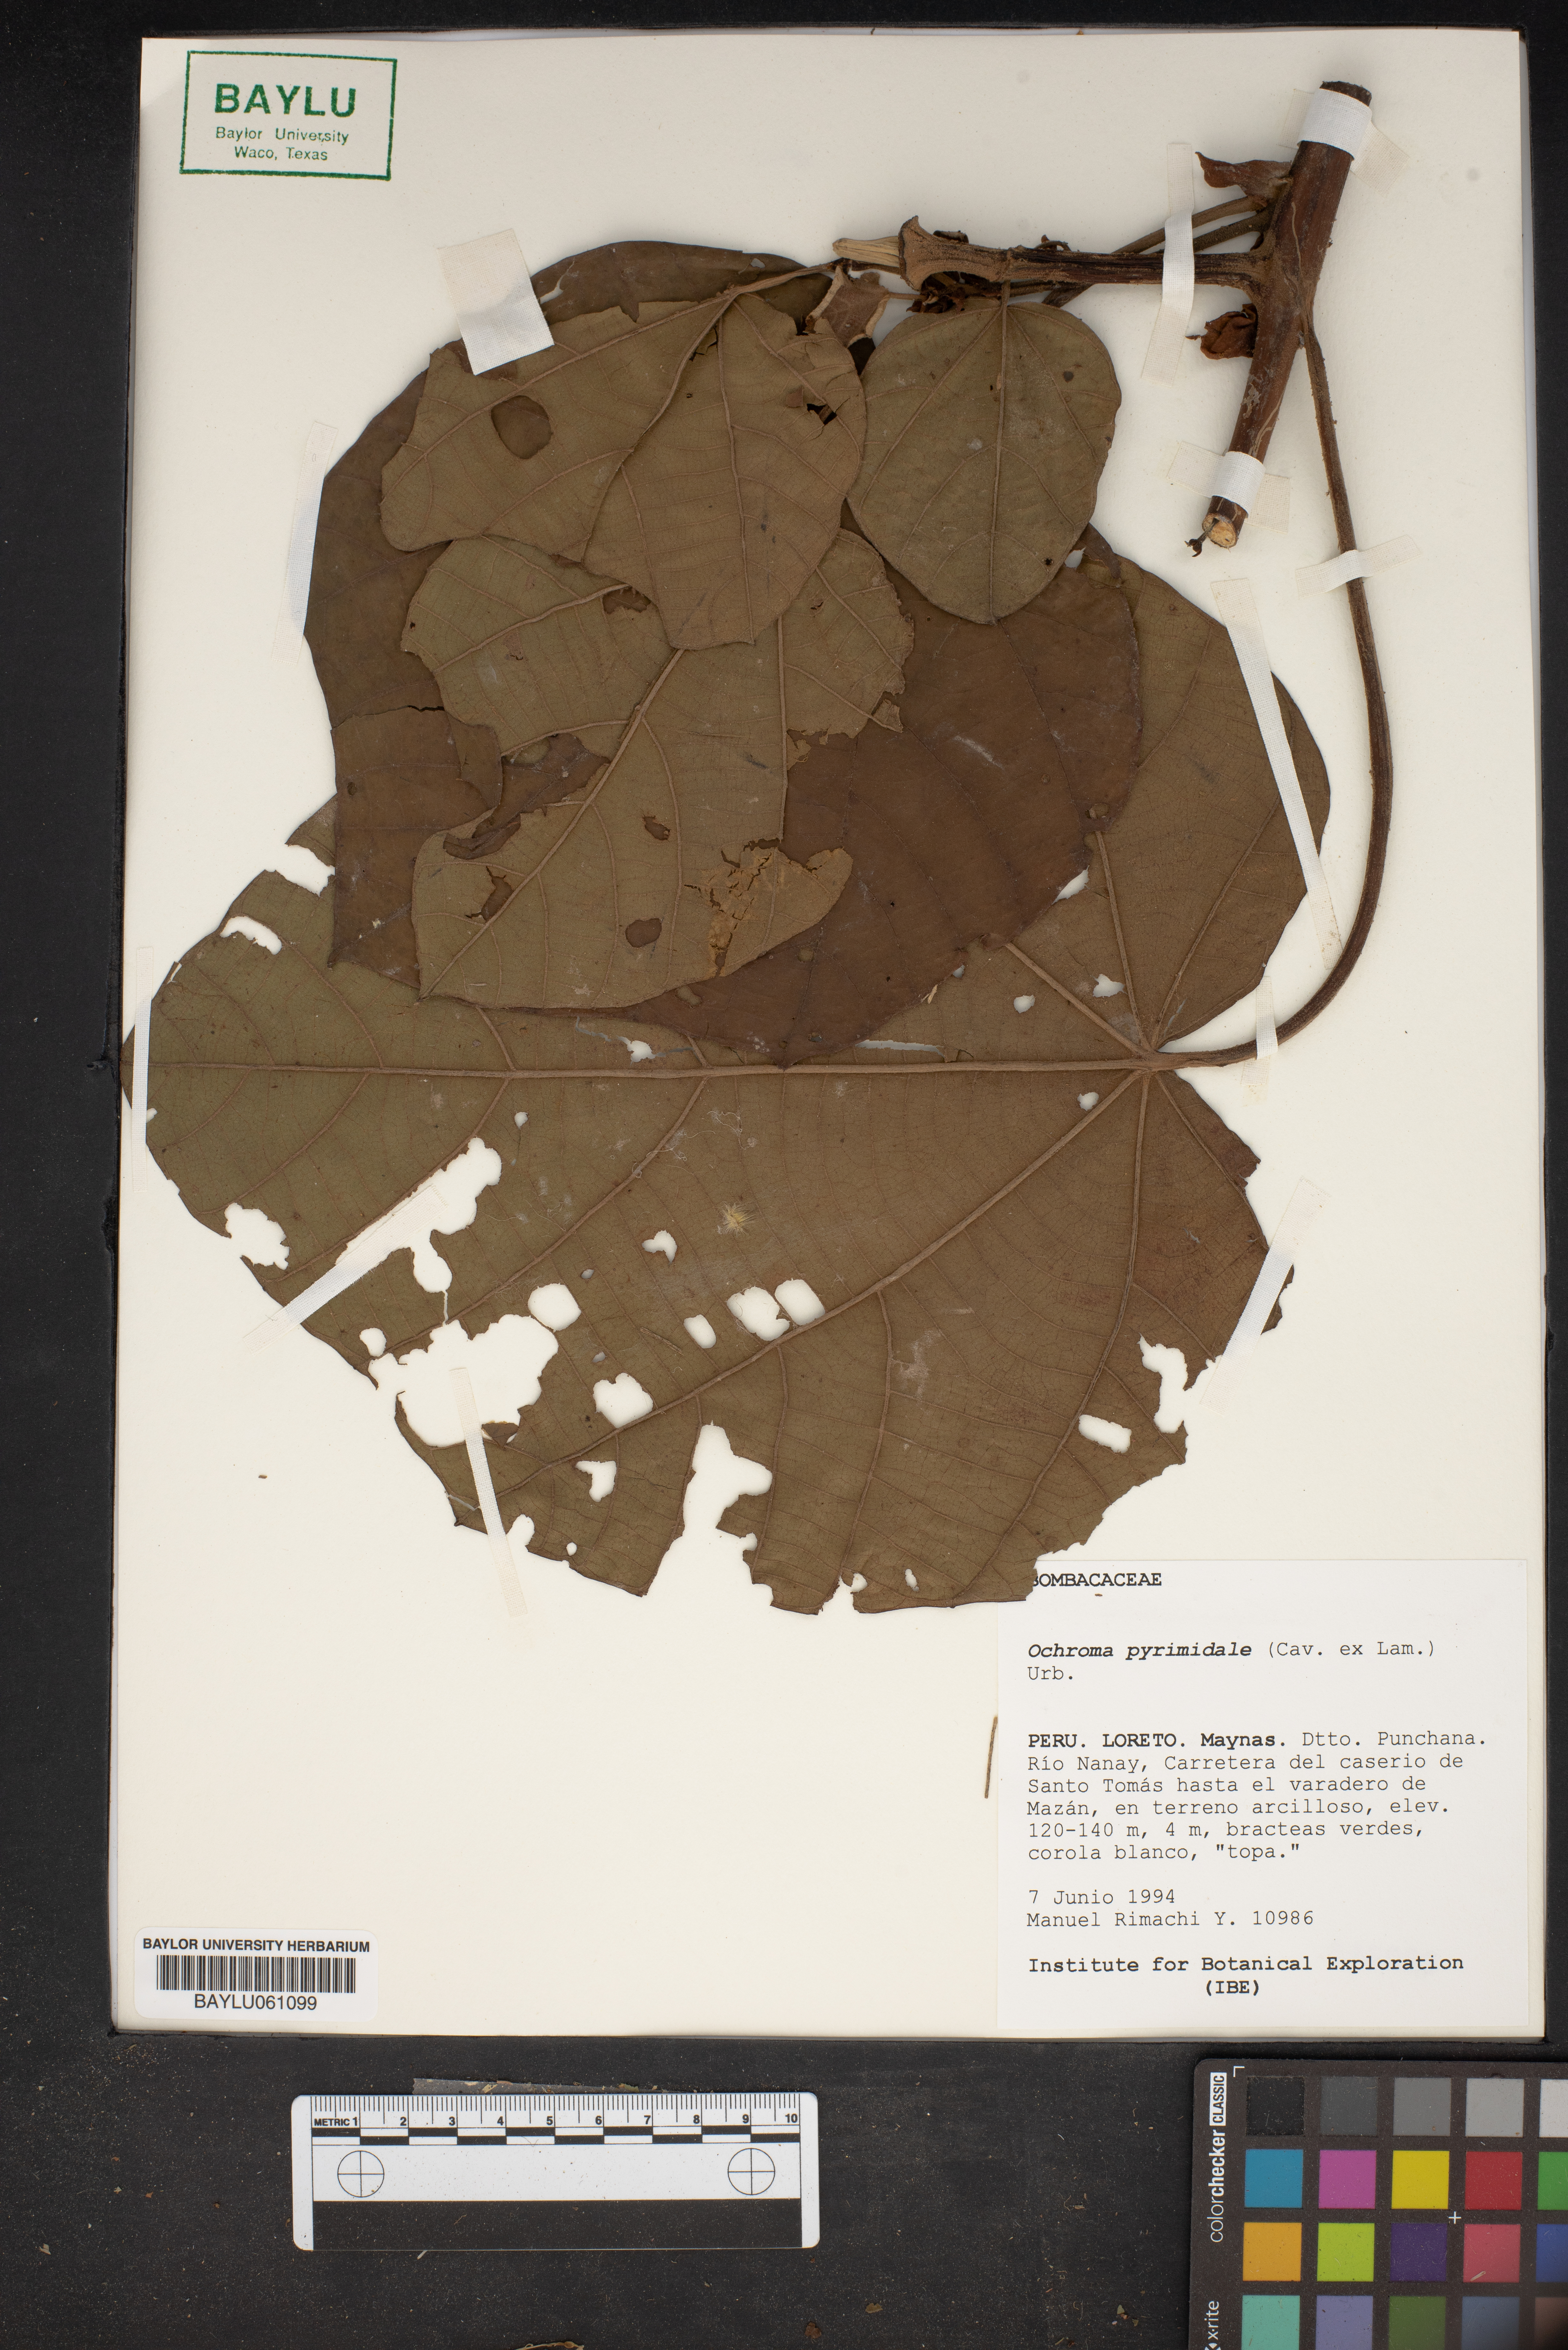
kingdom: Plantae
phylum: Tracheophyta
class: Magnoliopsida
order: Malvales
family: Malvaceae
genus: Ochroma
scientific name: Ochroma pyramidale
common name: Balsa
